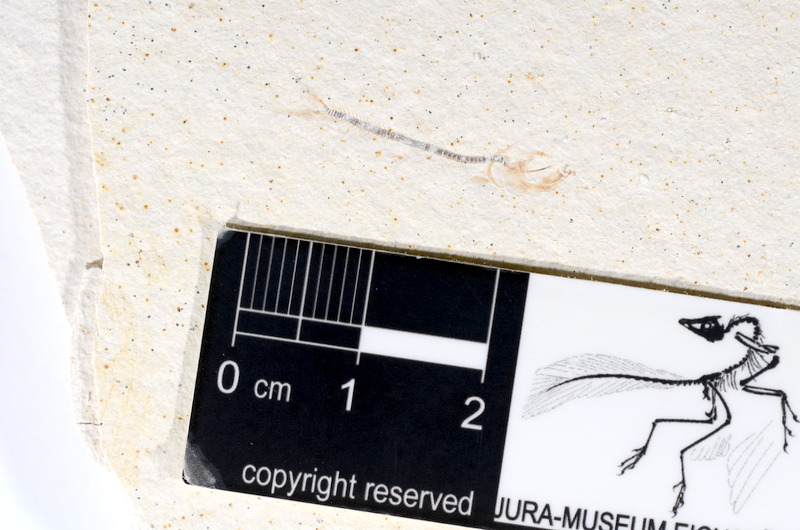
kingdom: Animalia
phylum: Chordata
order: Salmoniformes
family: Orthogonikleithridae
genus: Orthogonikleithrus
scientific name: Orthogonikleithrus hoelli
